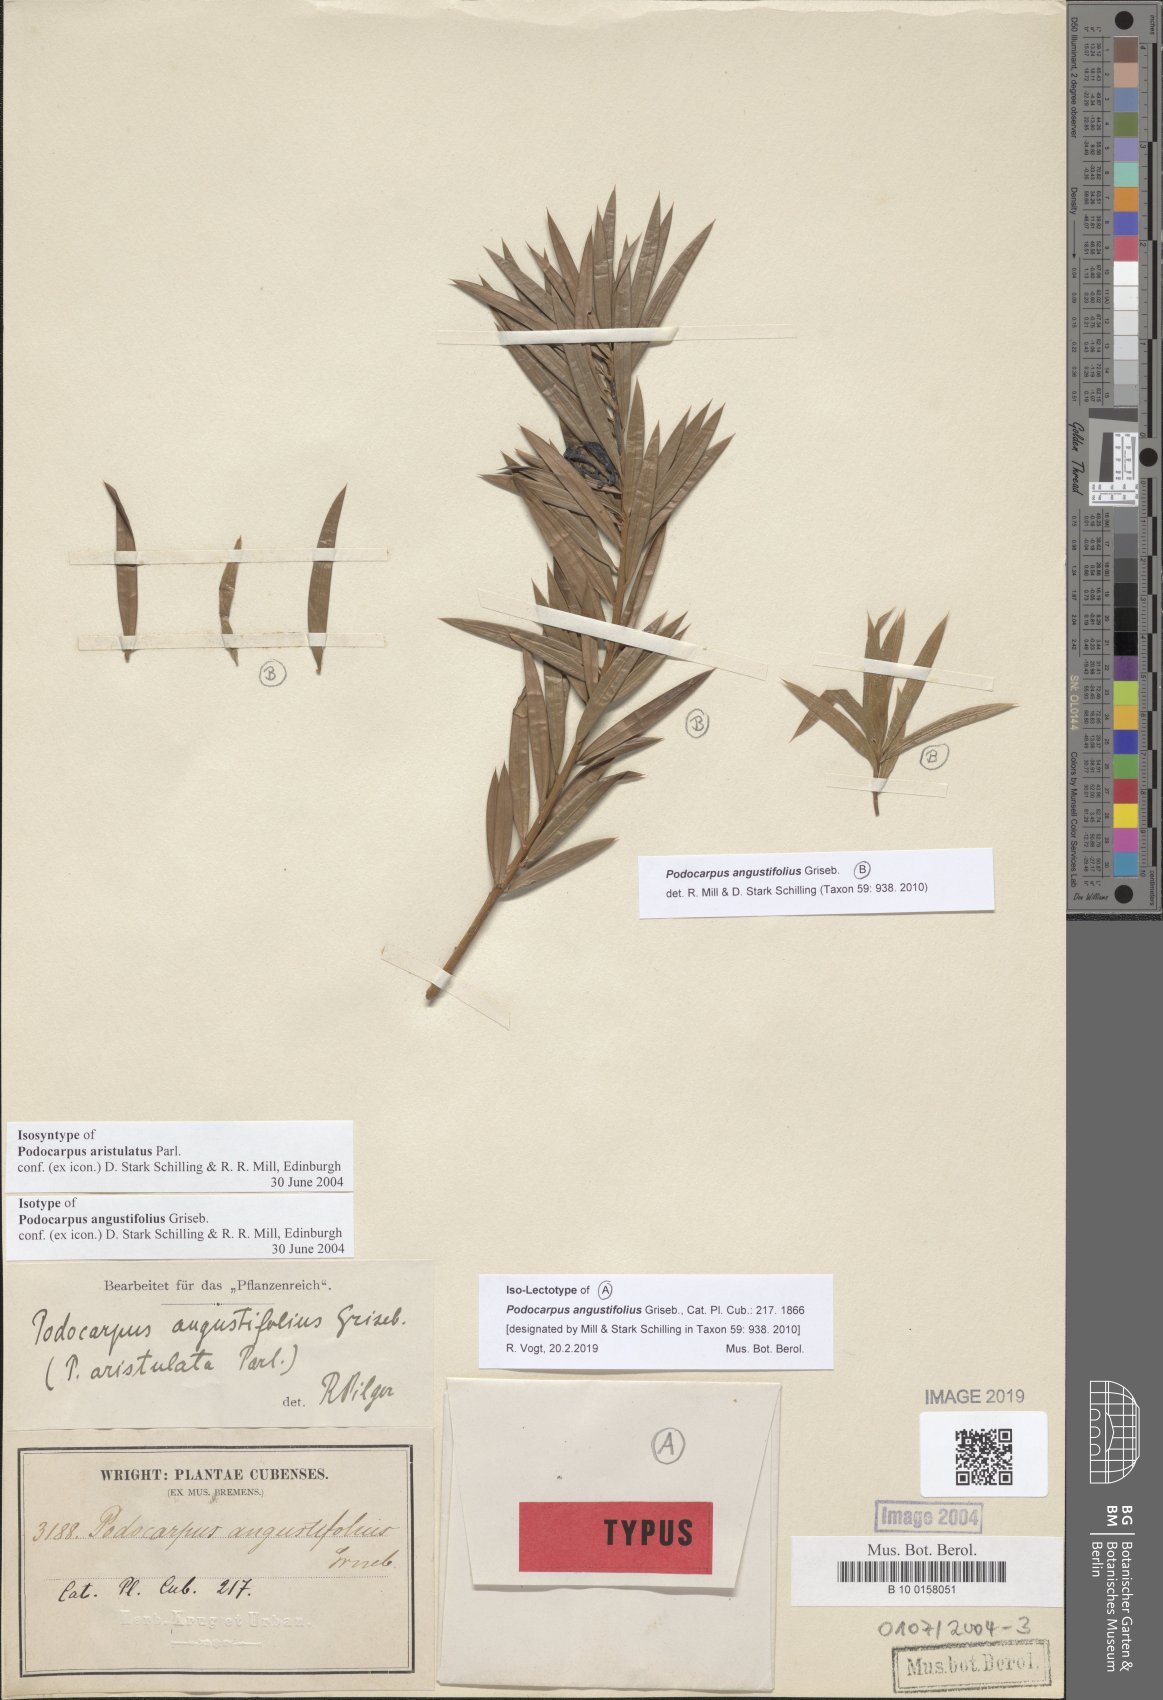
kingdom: Plantae
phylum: Tracheophyta
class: Pinopsida
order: Pinales
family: Podocarpaceae
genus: Podocarpus
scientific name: Podocarpus angustifolius
